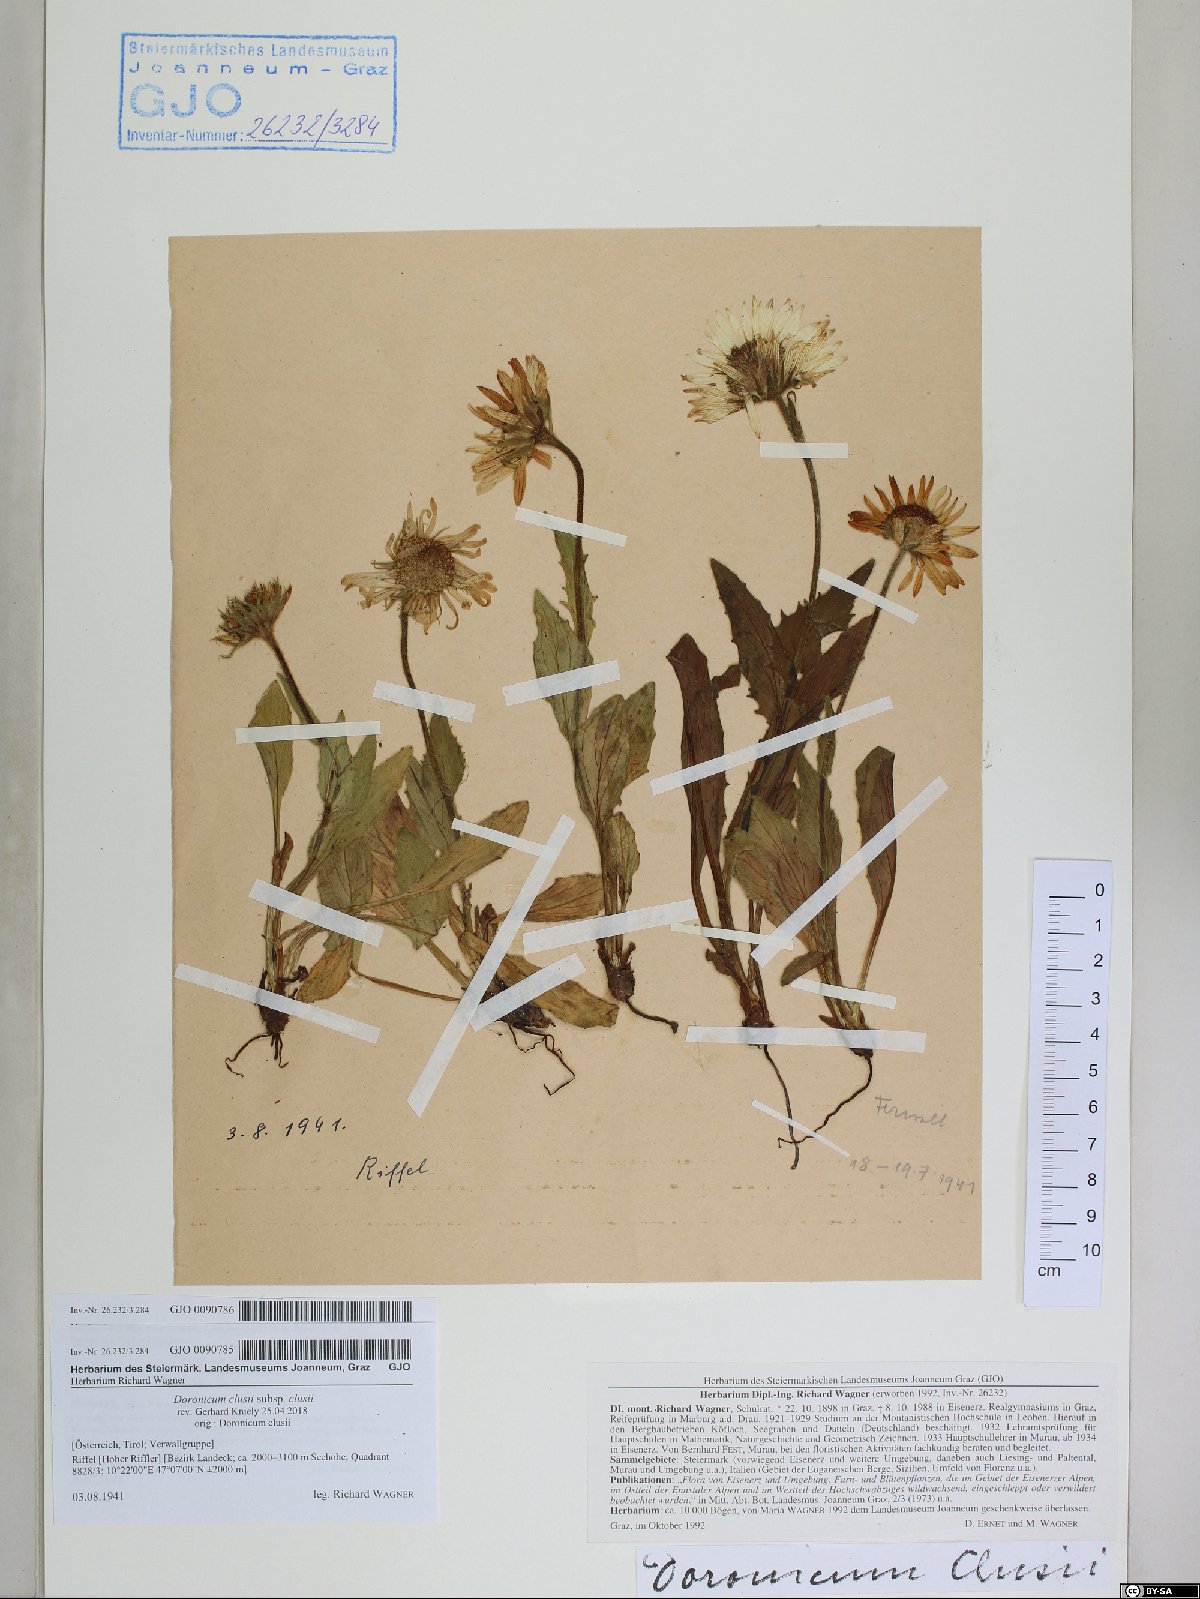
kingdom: Plantae
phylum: Tracheophyta
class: Magnoliopsida
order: Asterales
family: Asteraceae
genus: Doronicum
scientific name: Doronicum clusii
